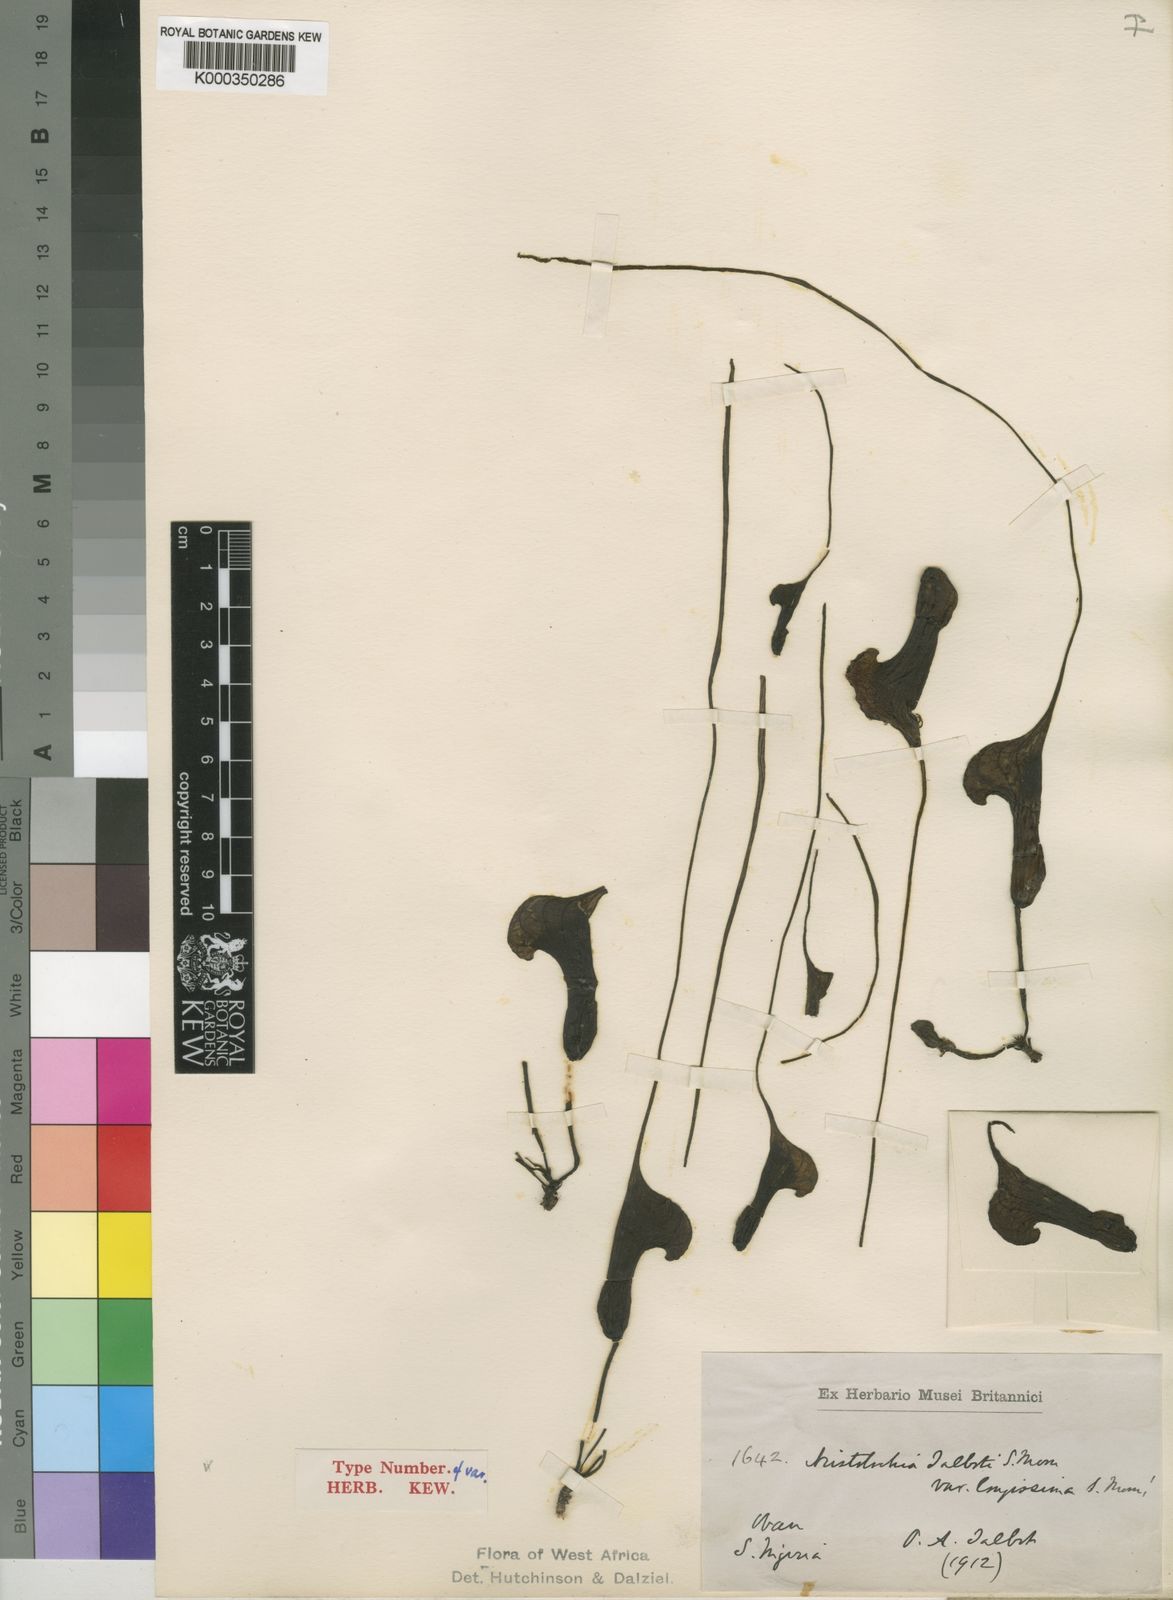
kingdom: Plantae
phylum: Tracheophyta
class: Magnoliopsida
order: Piperales
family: Aristolochiaceae
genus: Aristolochia
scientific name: Aristolochia promissa
